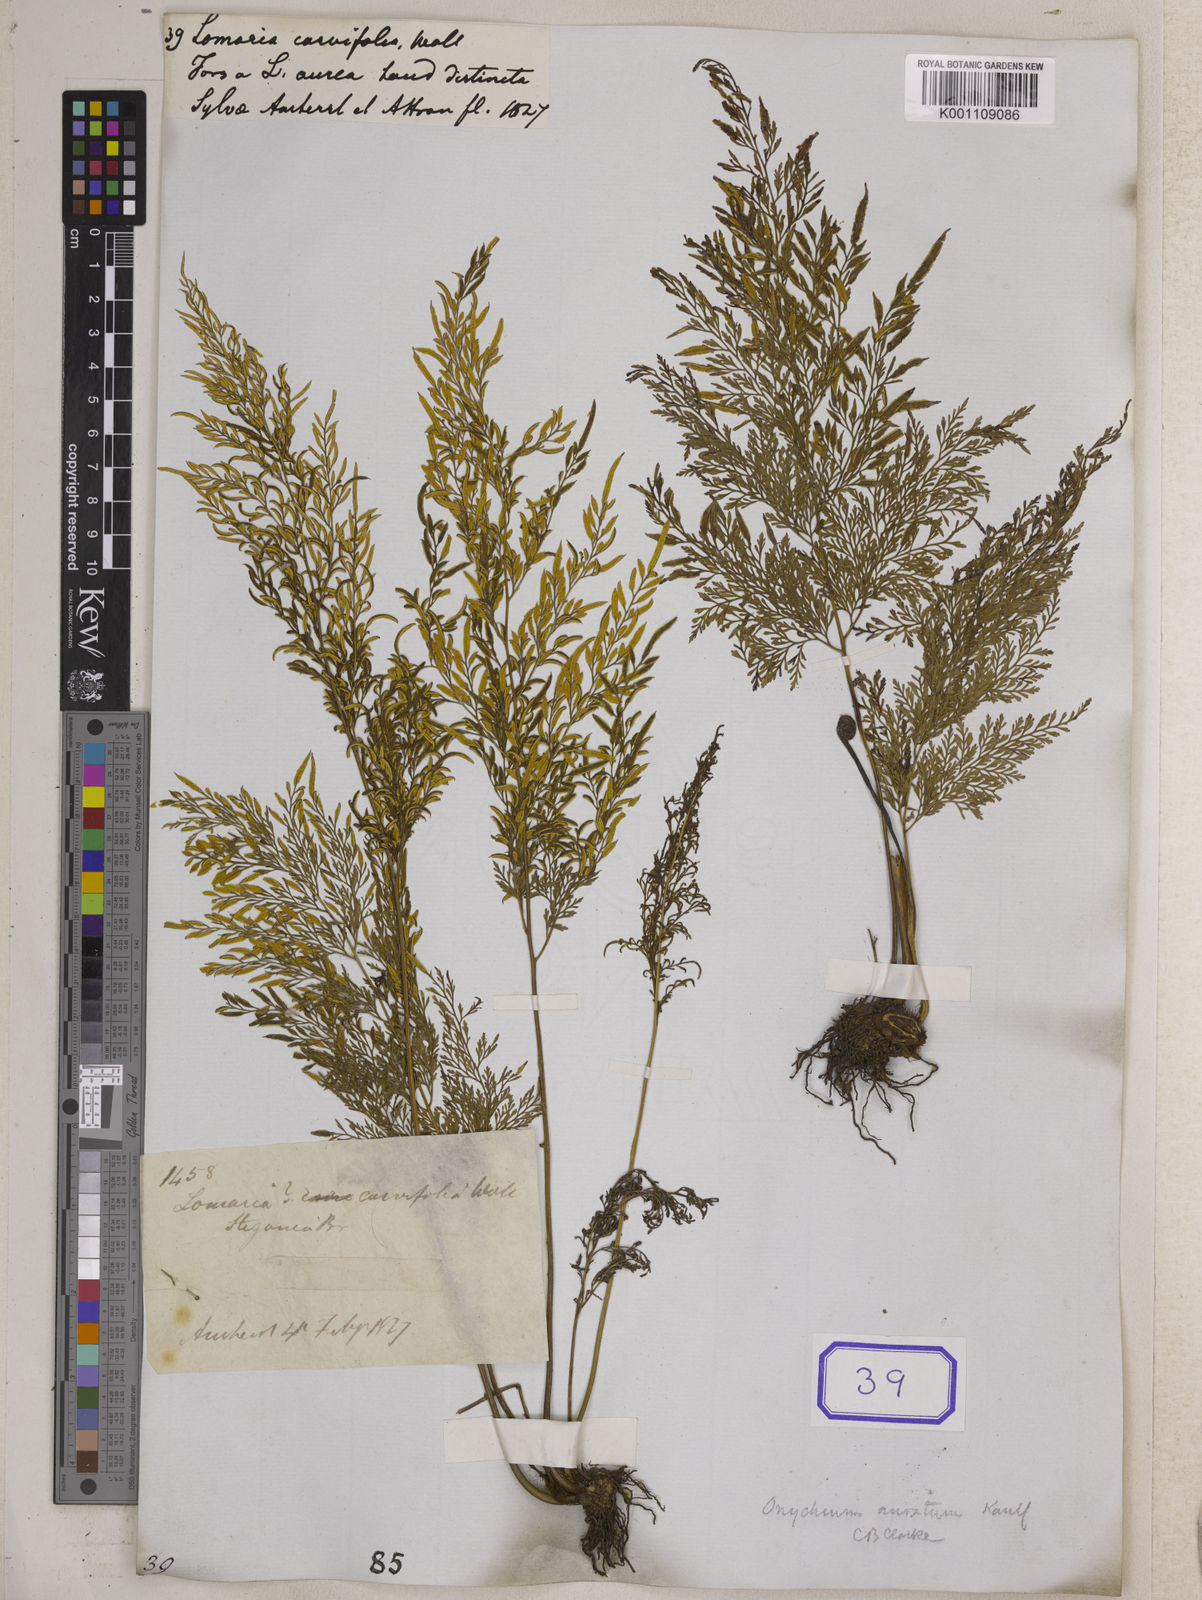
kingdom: Plantae
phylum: Tracheophyta
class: Polypodiopsida
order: Polypodiales
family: Pteridaceae
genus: Onychium
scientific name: Onychium siliculosum
